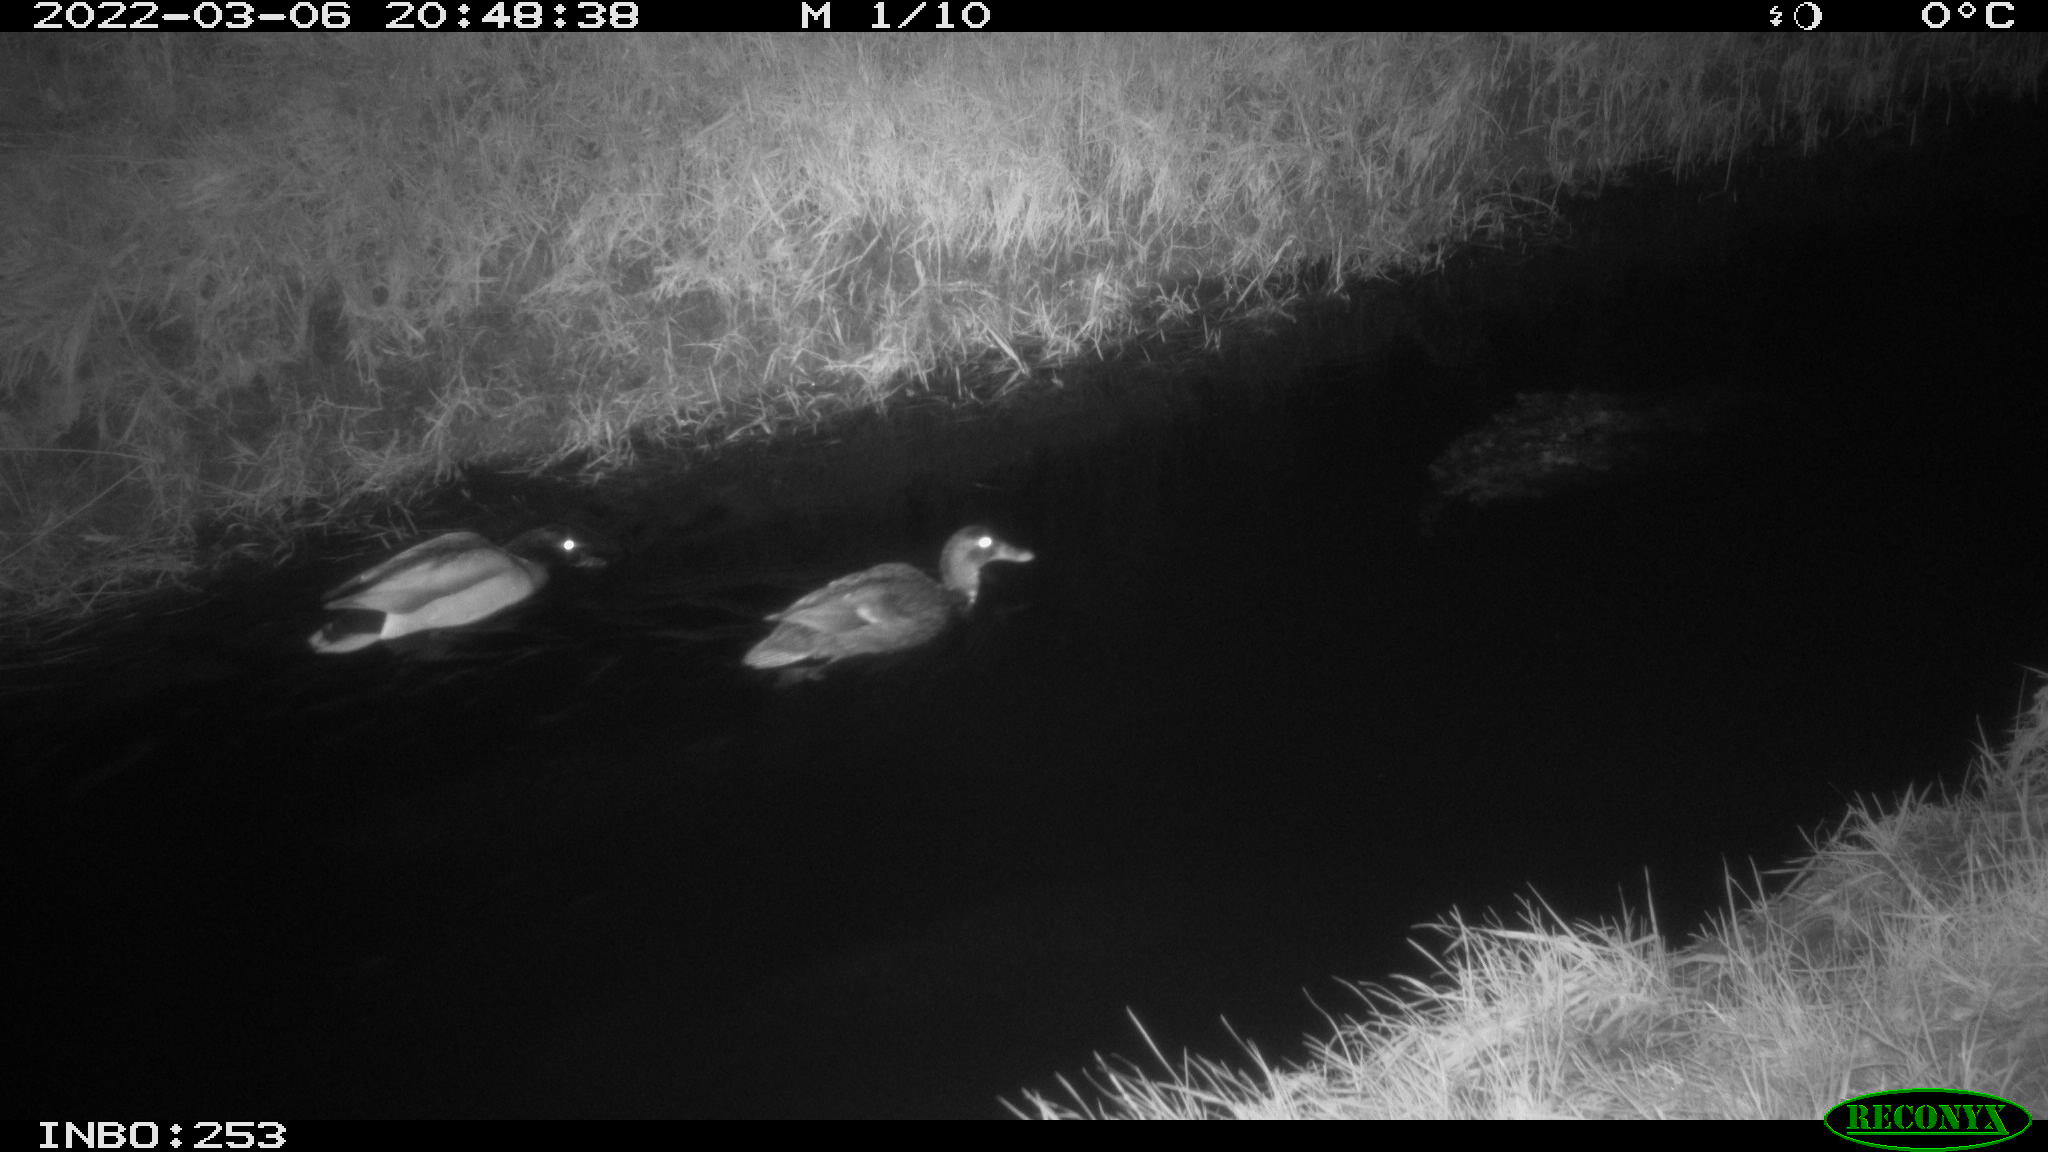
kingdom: Animalia
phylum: Chordata
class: Aves
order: Anseriformes
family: Anatidae
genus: Anas
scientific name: Anas platyrhynchos
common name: Mallard
